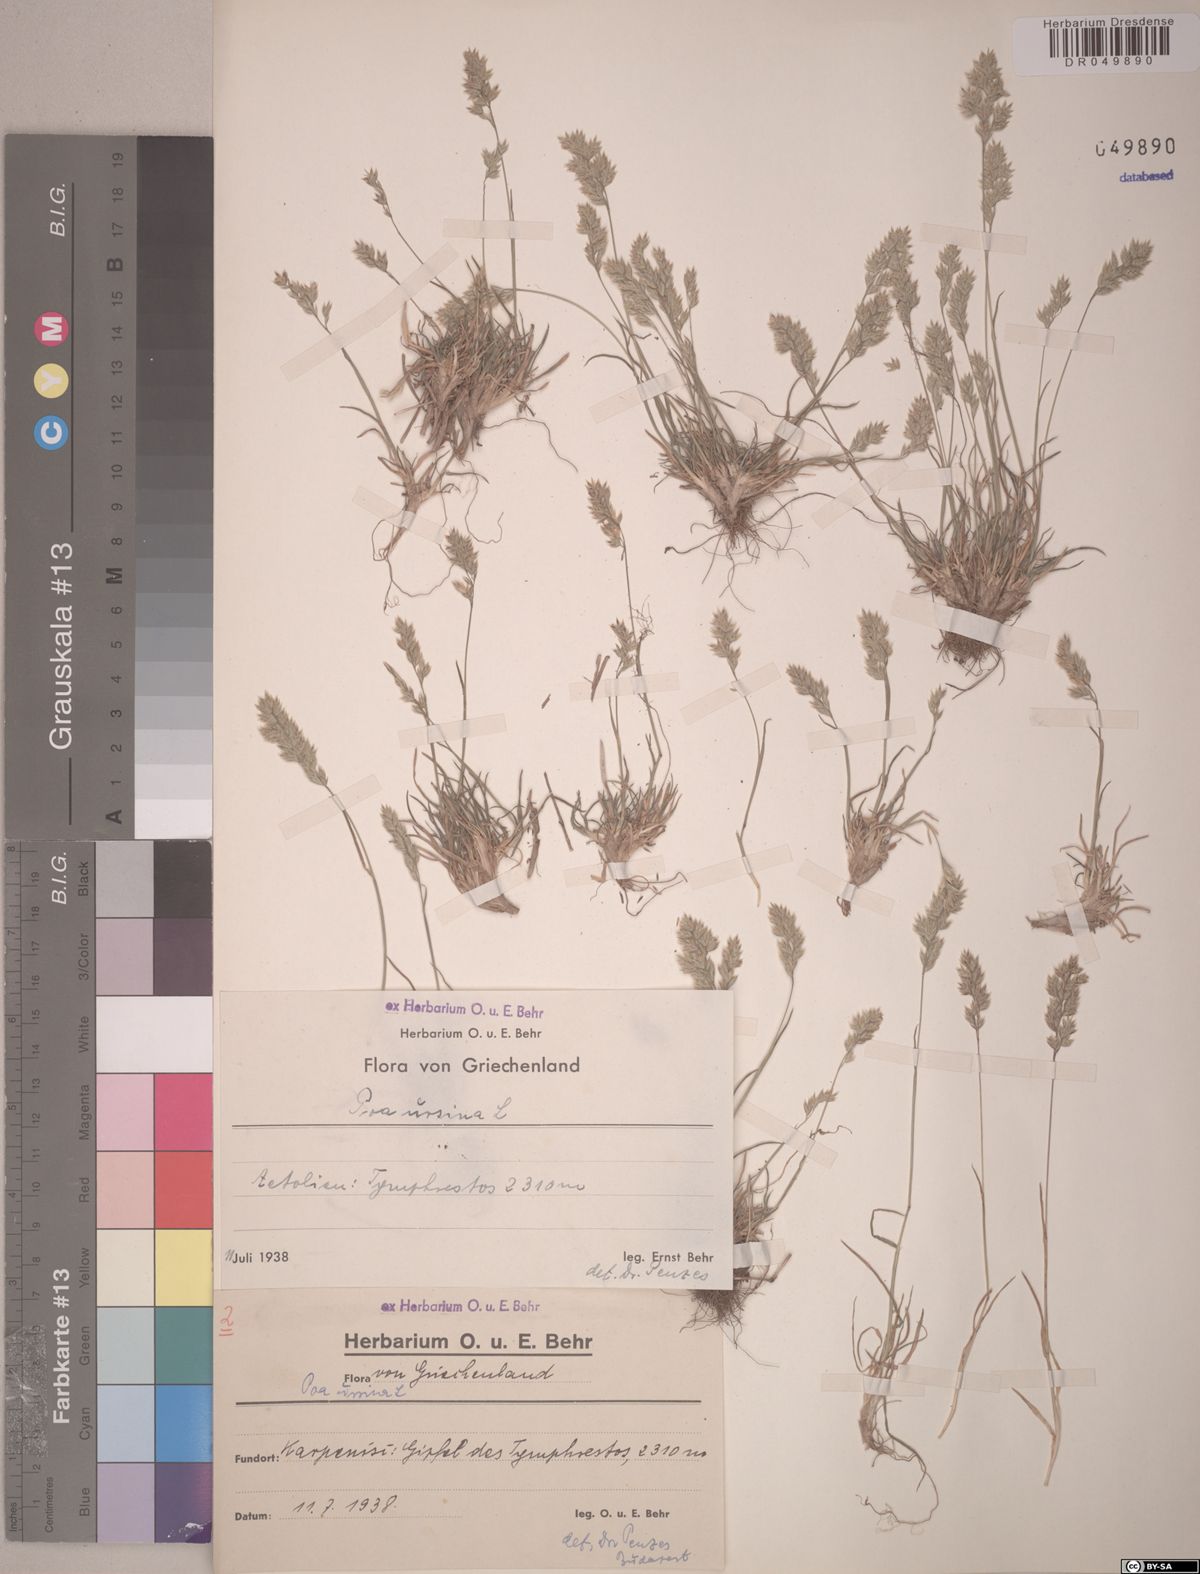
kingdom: Plantae
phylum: Tracheophyta
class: Liliopsida
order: Poales
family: Poaceae
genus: Poa
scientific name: Poa ursina
